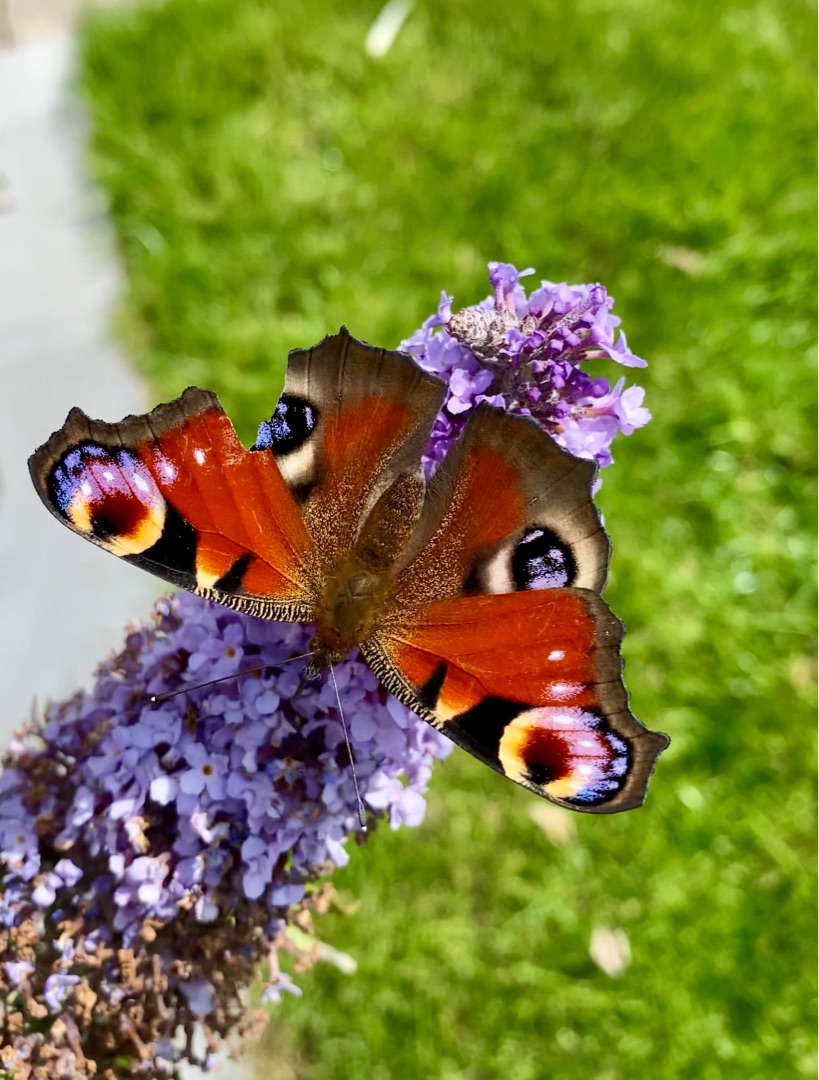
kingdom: Animalia
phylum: Arthropoda
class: Insecta
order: Lepidoptera
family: Nymphalidae
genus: Aglais
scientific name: Aglais io
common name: Dagpåfugleøje
